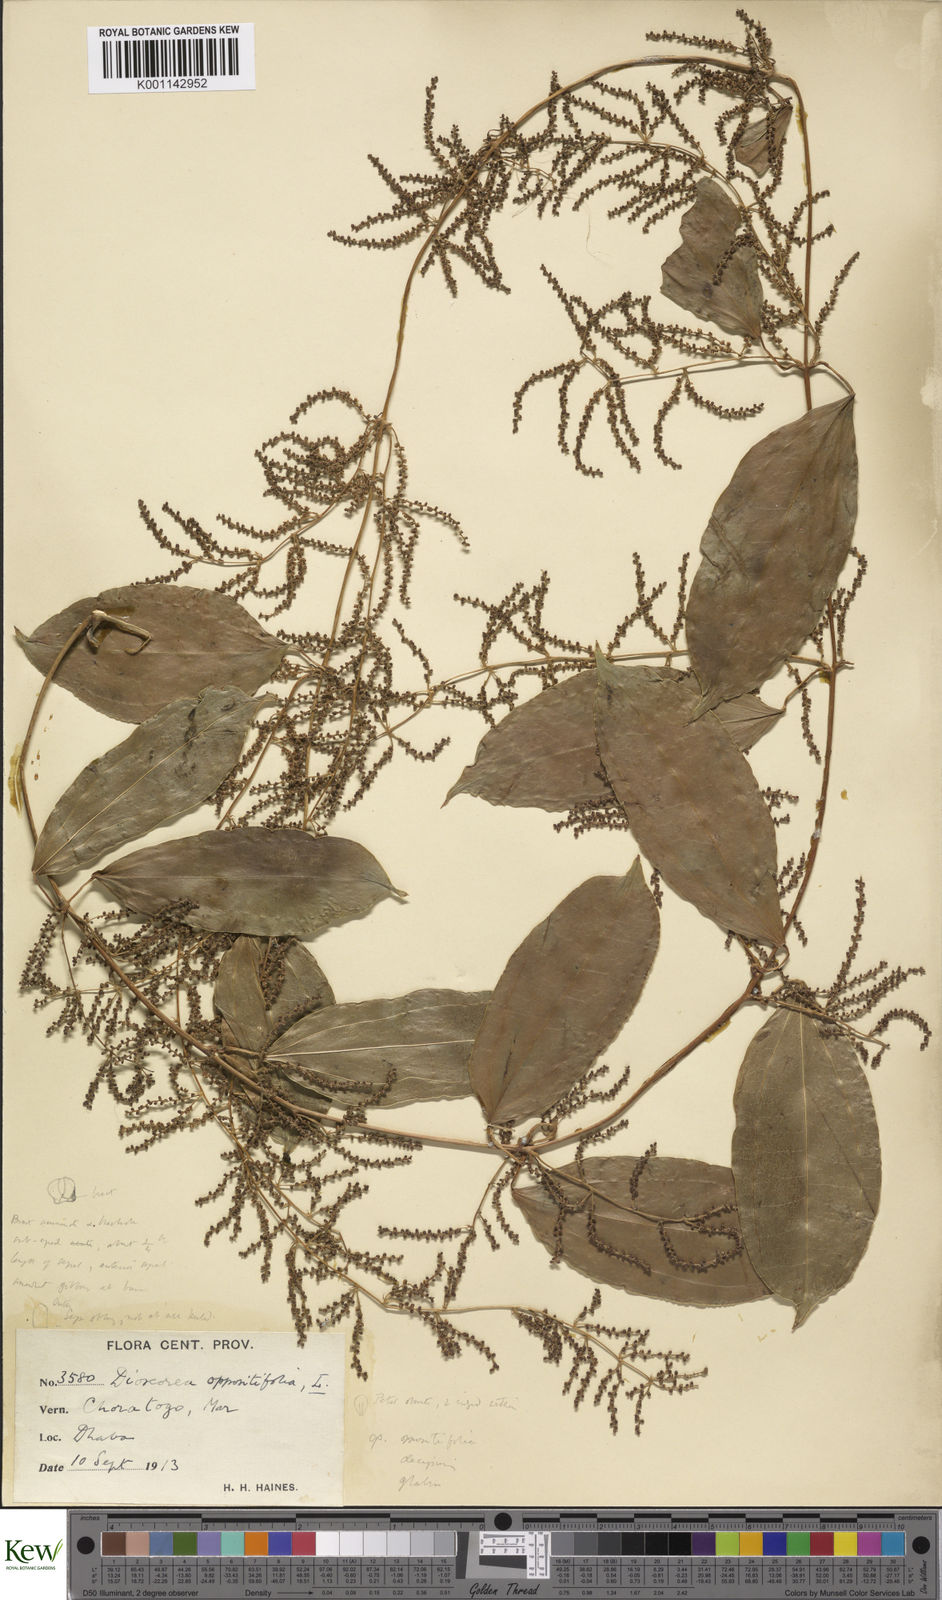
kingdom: Plantae
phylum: Tracheophyta
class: Liliopsida
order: Dioscoreales
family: Dioscoreaceae
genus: Dioscorea
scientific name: Dioscorea oppositifolia
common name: Chinese yam
